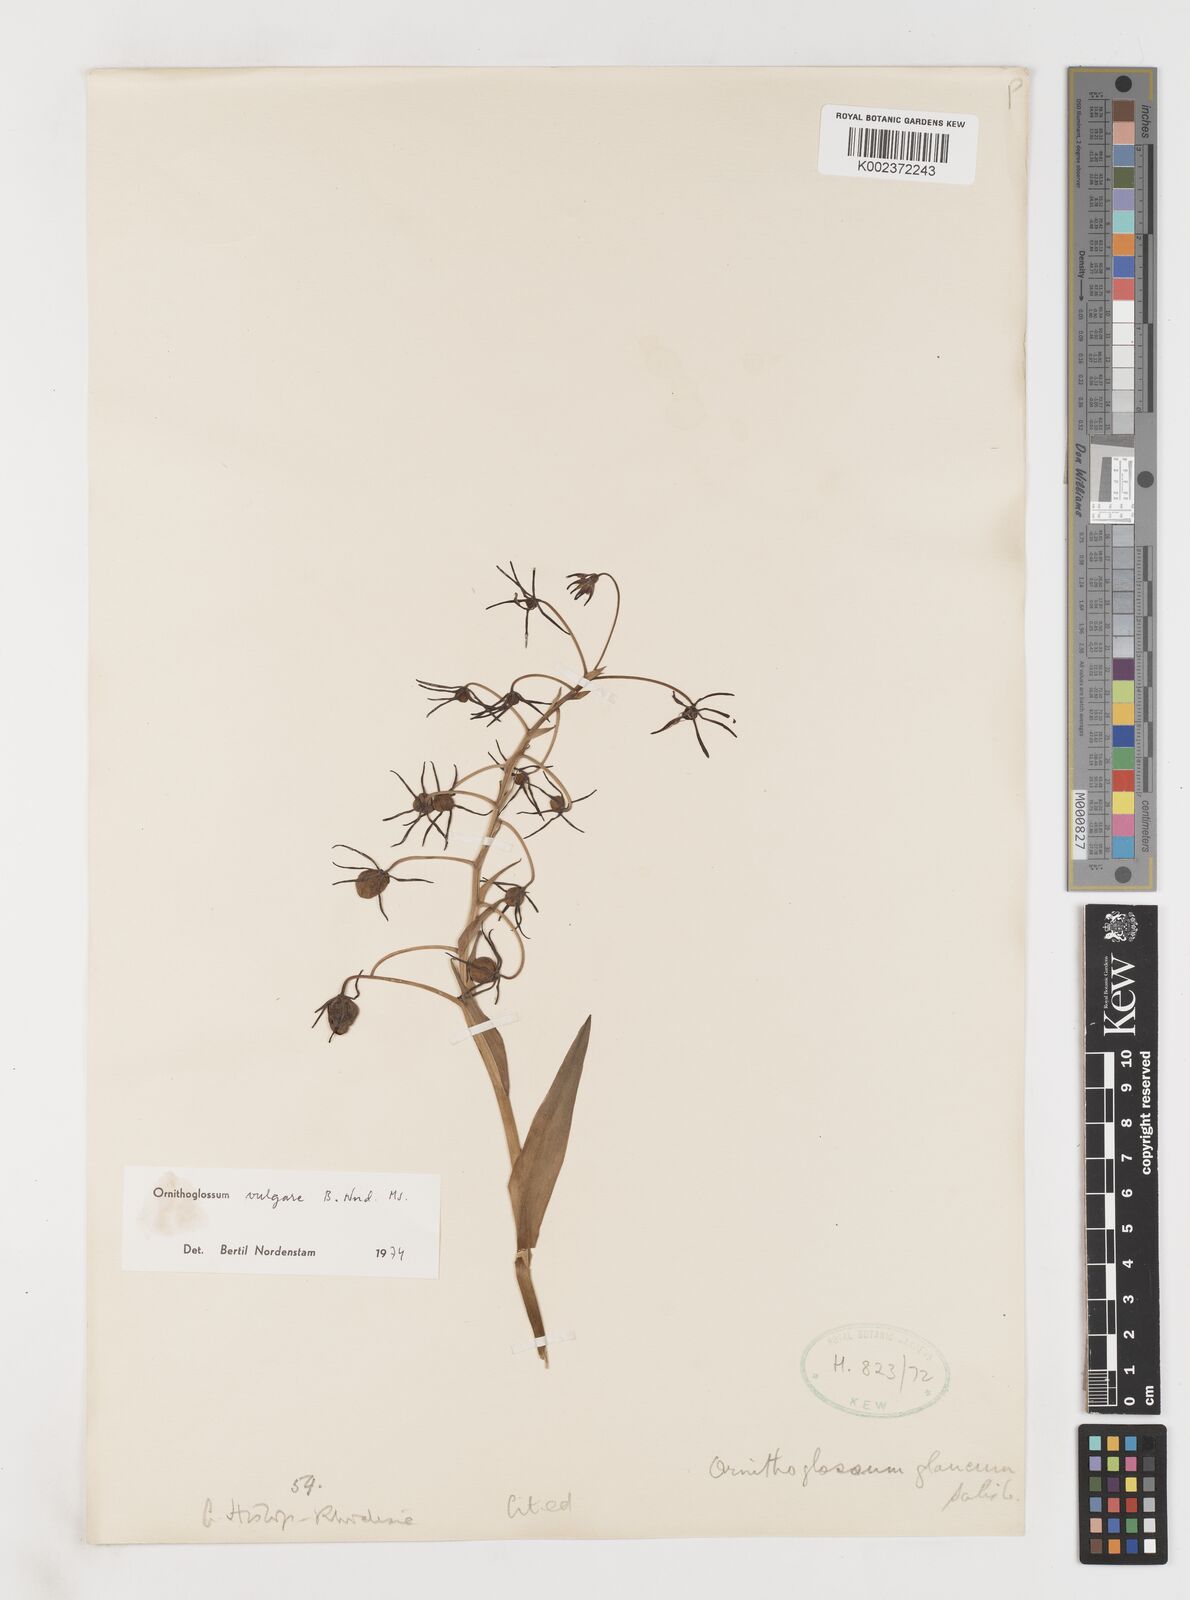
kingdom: Plantae
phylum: Tracheophyta
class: Liliopsida
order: Liliales
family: Colchicaceae
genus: Ornithoglossum
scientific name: Ornithoglossum vulgare
